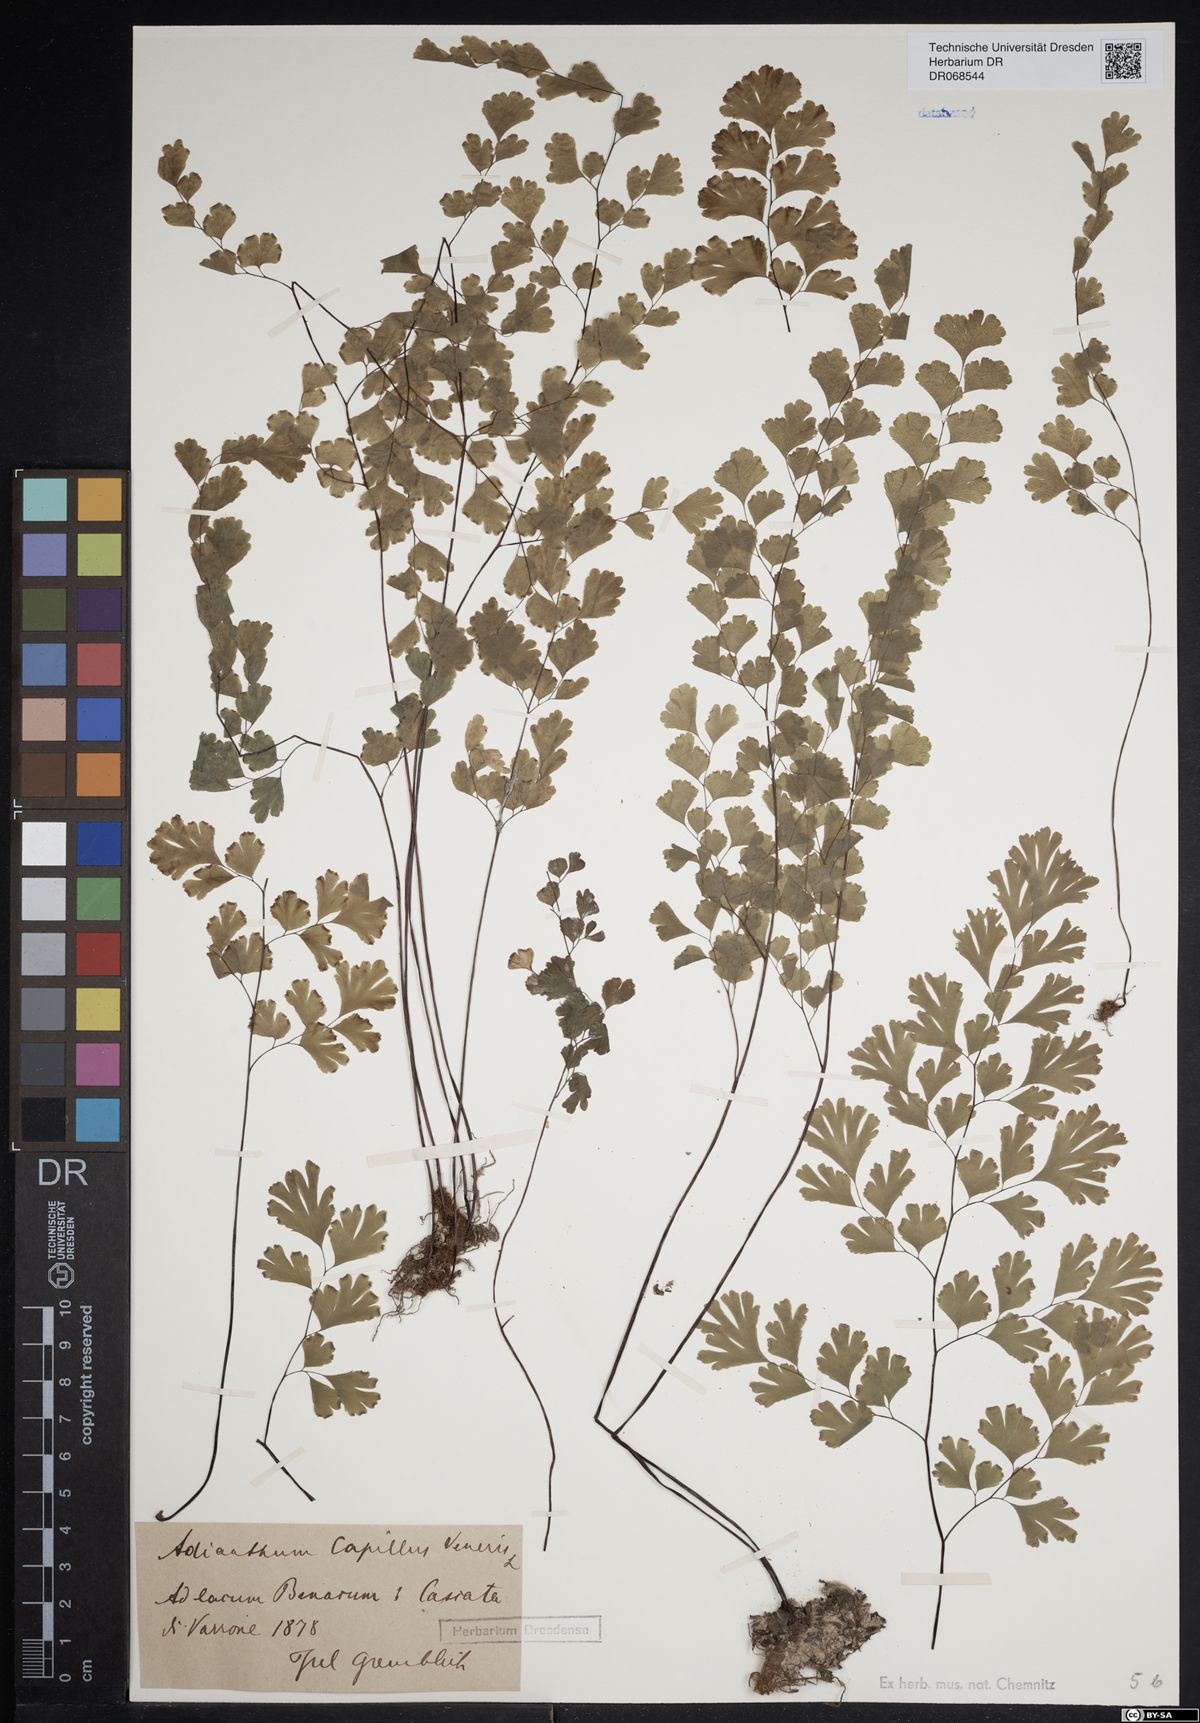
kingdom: Plantae
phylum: Tracheophyta
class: Polypodiopsida
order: Polypodiales
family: Pteridaceae
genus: Adiantum
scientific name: Adiantum capillus-veneris
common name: Maidenhair fern
